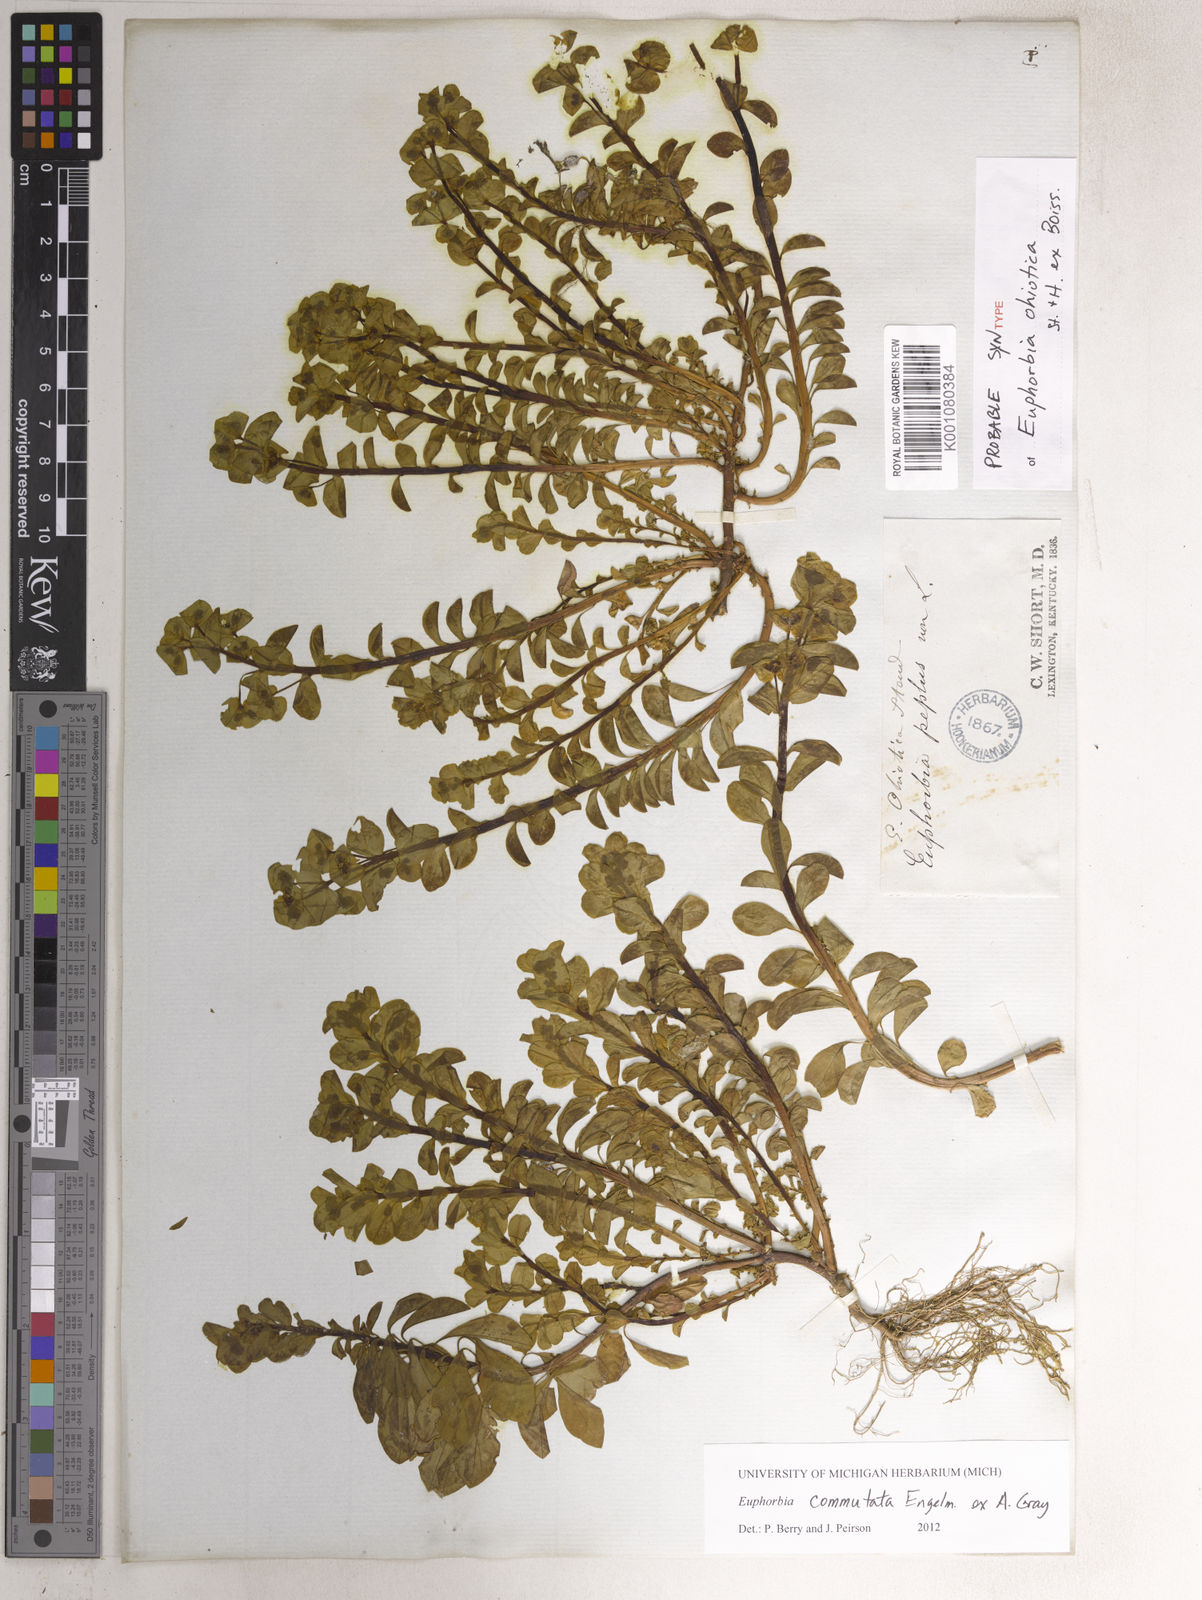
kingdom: Plantae
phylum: Tracheophyta
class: Magnoliopsida
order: Malpighiales
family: Euphorbiaceae
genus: Euphorbia
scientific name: Euphorbia commutata
